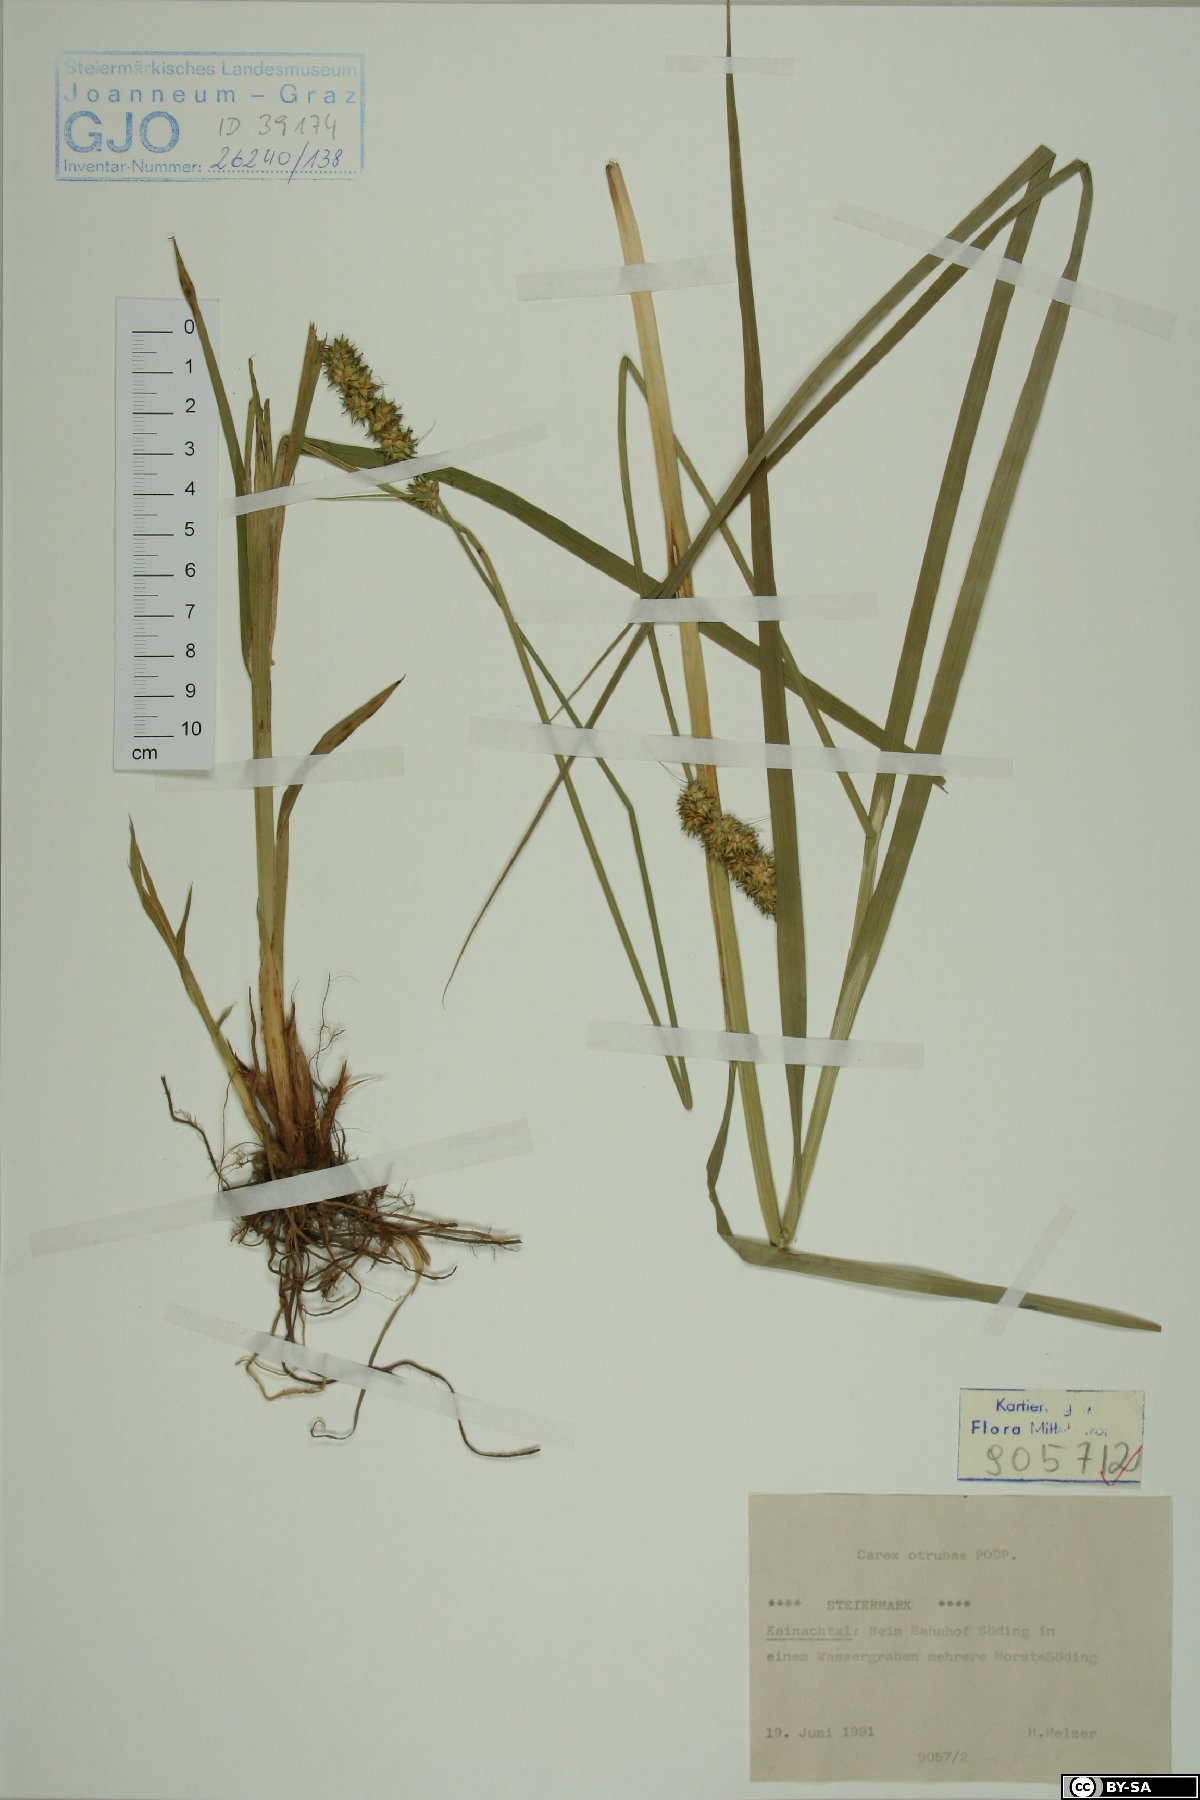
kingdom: Plantae
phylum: Tracheophyta
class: Liliopsida
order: Poales
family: Cyperaceae
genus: Carex
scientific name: Carex otrubae
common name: False fox-sedge
